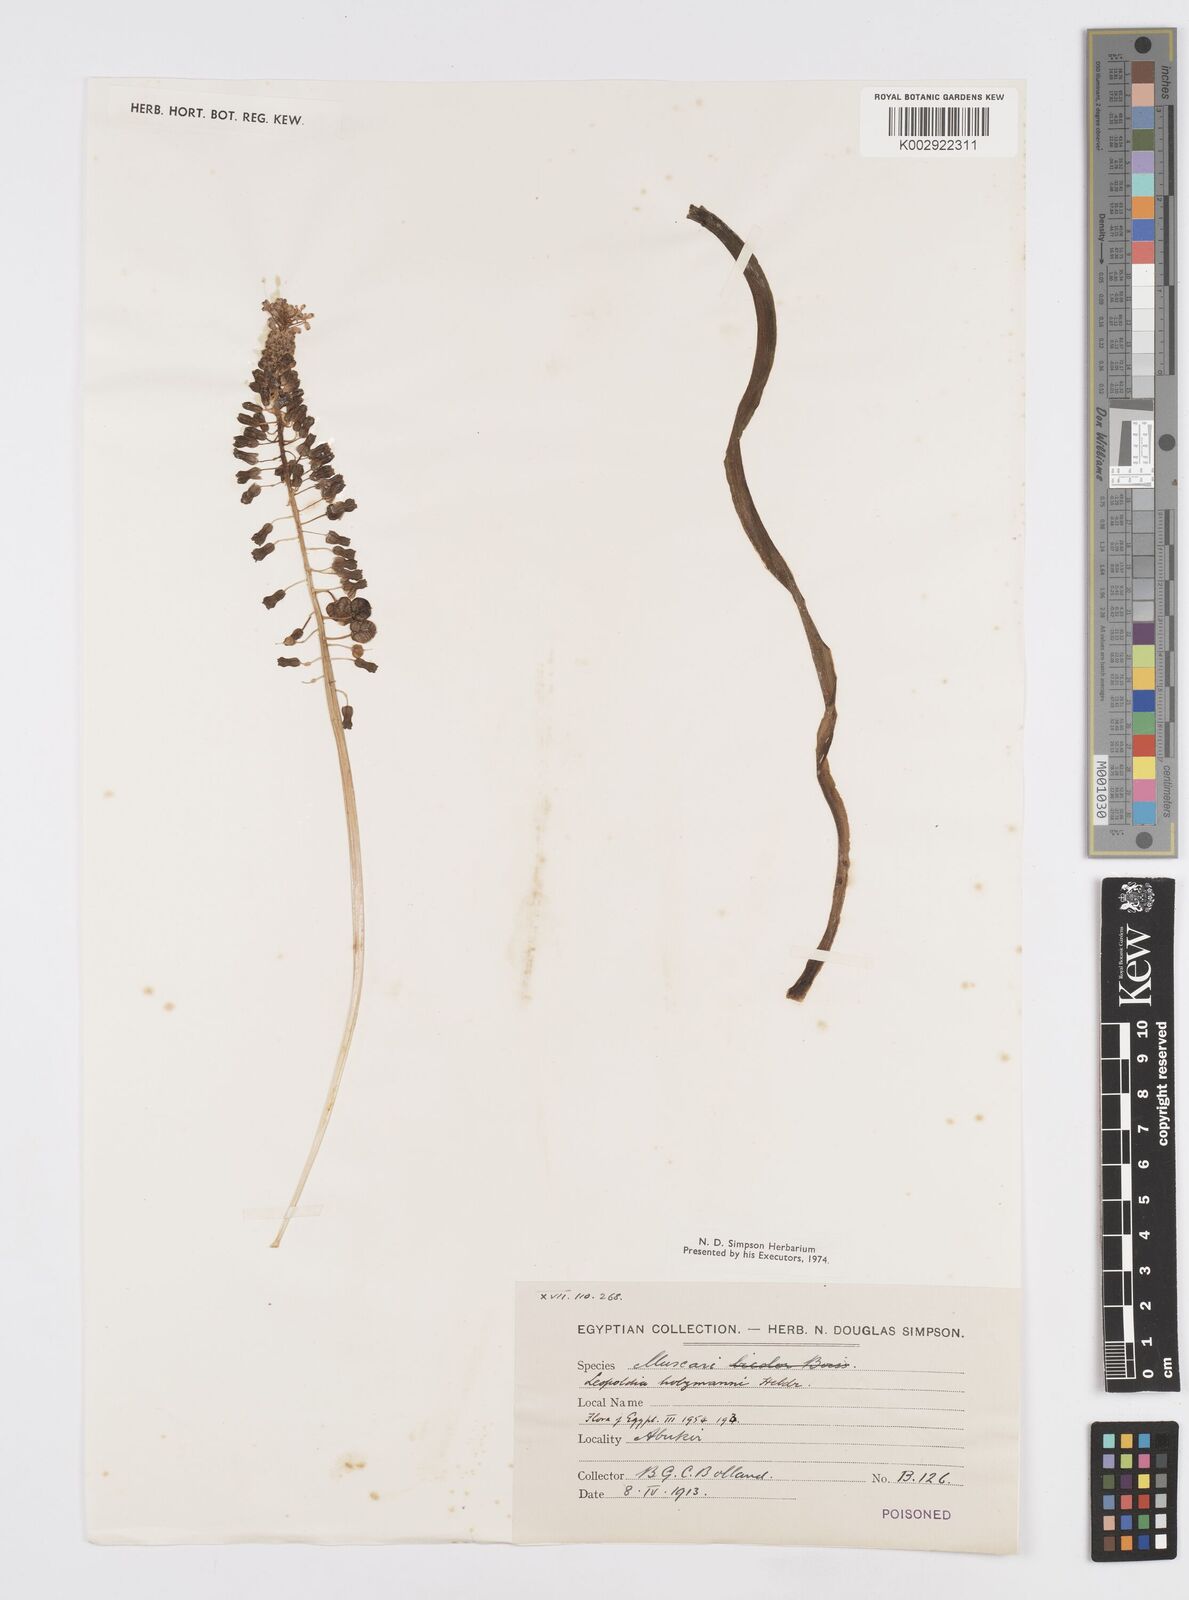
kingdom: Plantae
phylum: Tracheophyta
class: Liliopsida
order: Asparagales
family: Asparagaceae
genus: Muscari
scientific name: Muscari comosum
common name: Tassel hyacinth
